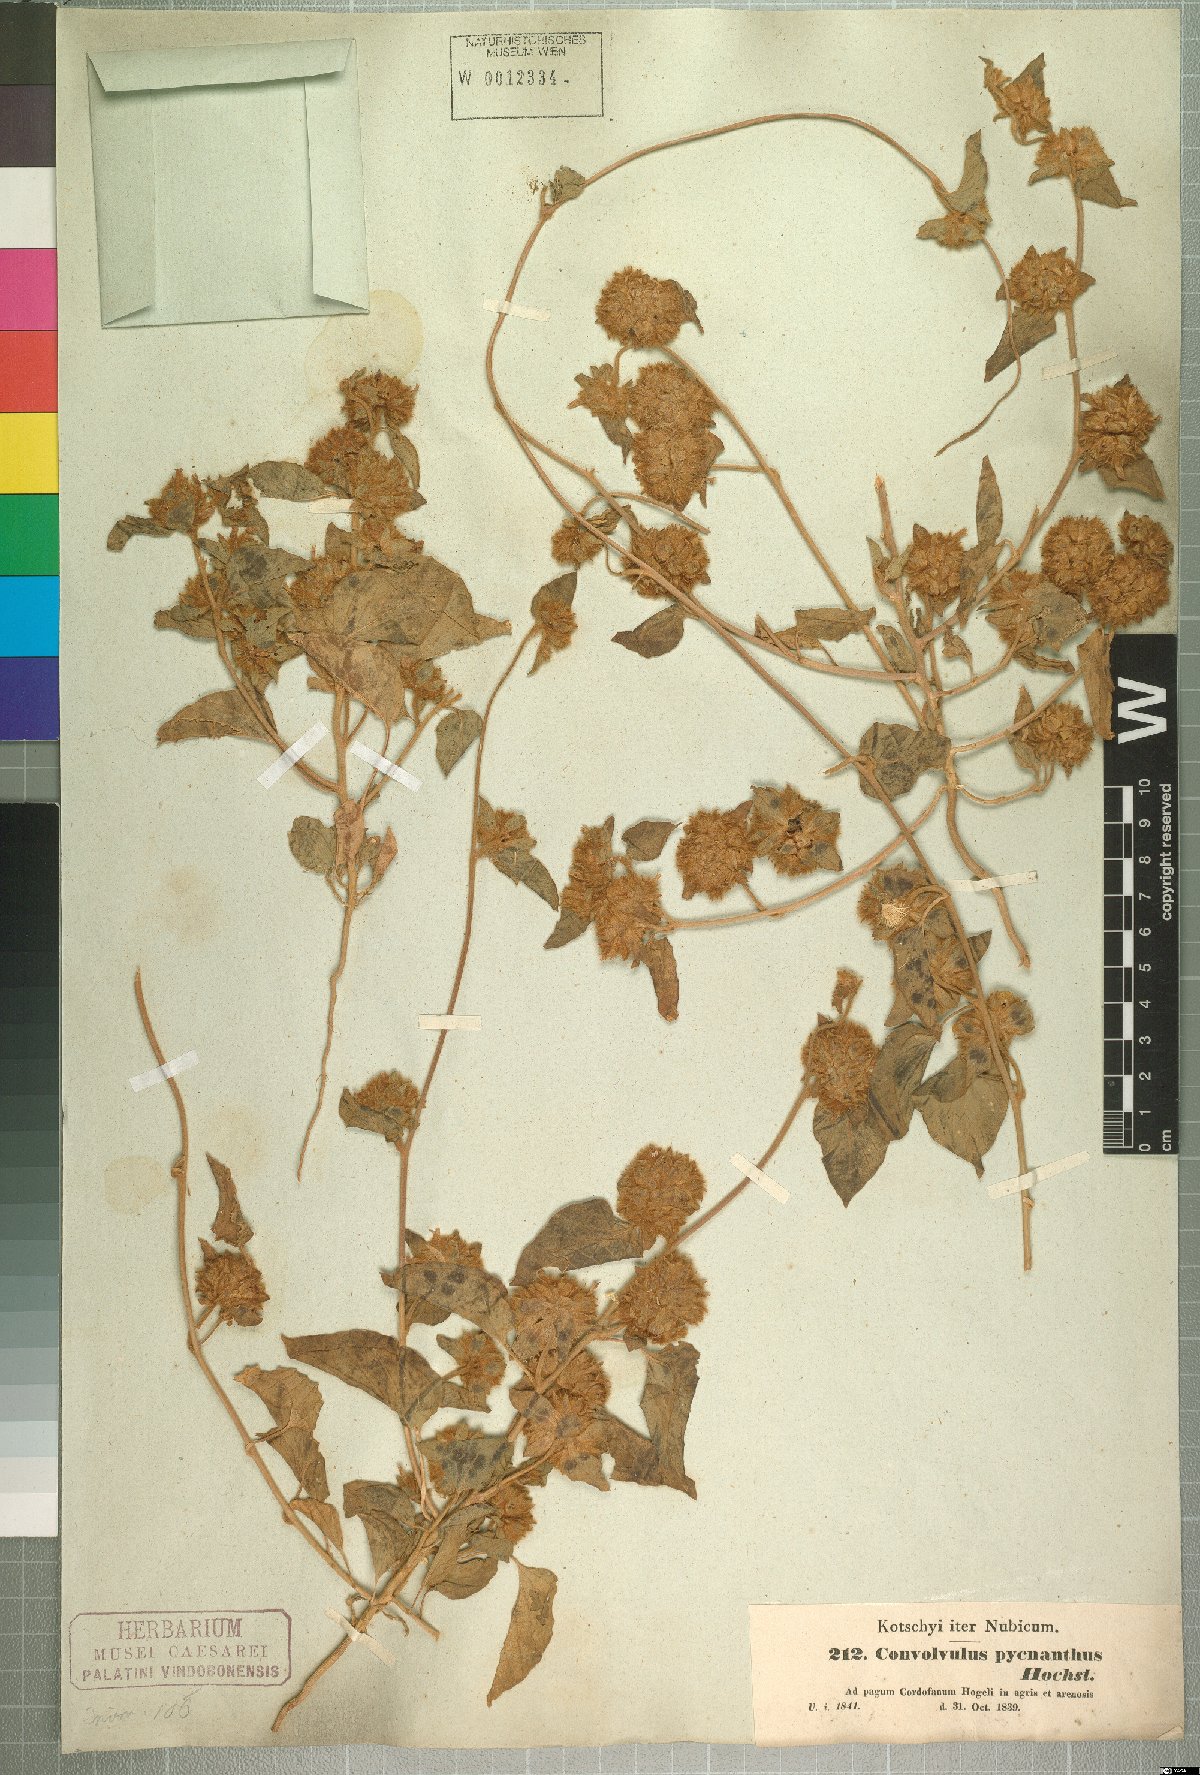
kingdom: Plantae
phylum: Tracheophyta
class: Magnoliopsida
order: Solanales
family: Convolvulaceae
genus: Jacquemontia
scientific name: Jacquemontia tamnifolia
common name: Hairy clustervine
